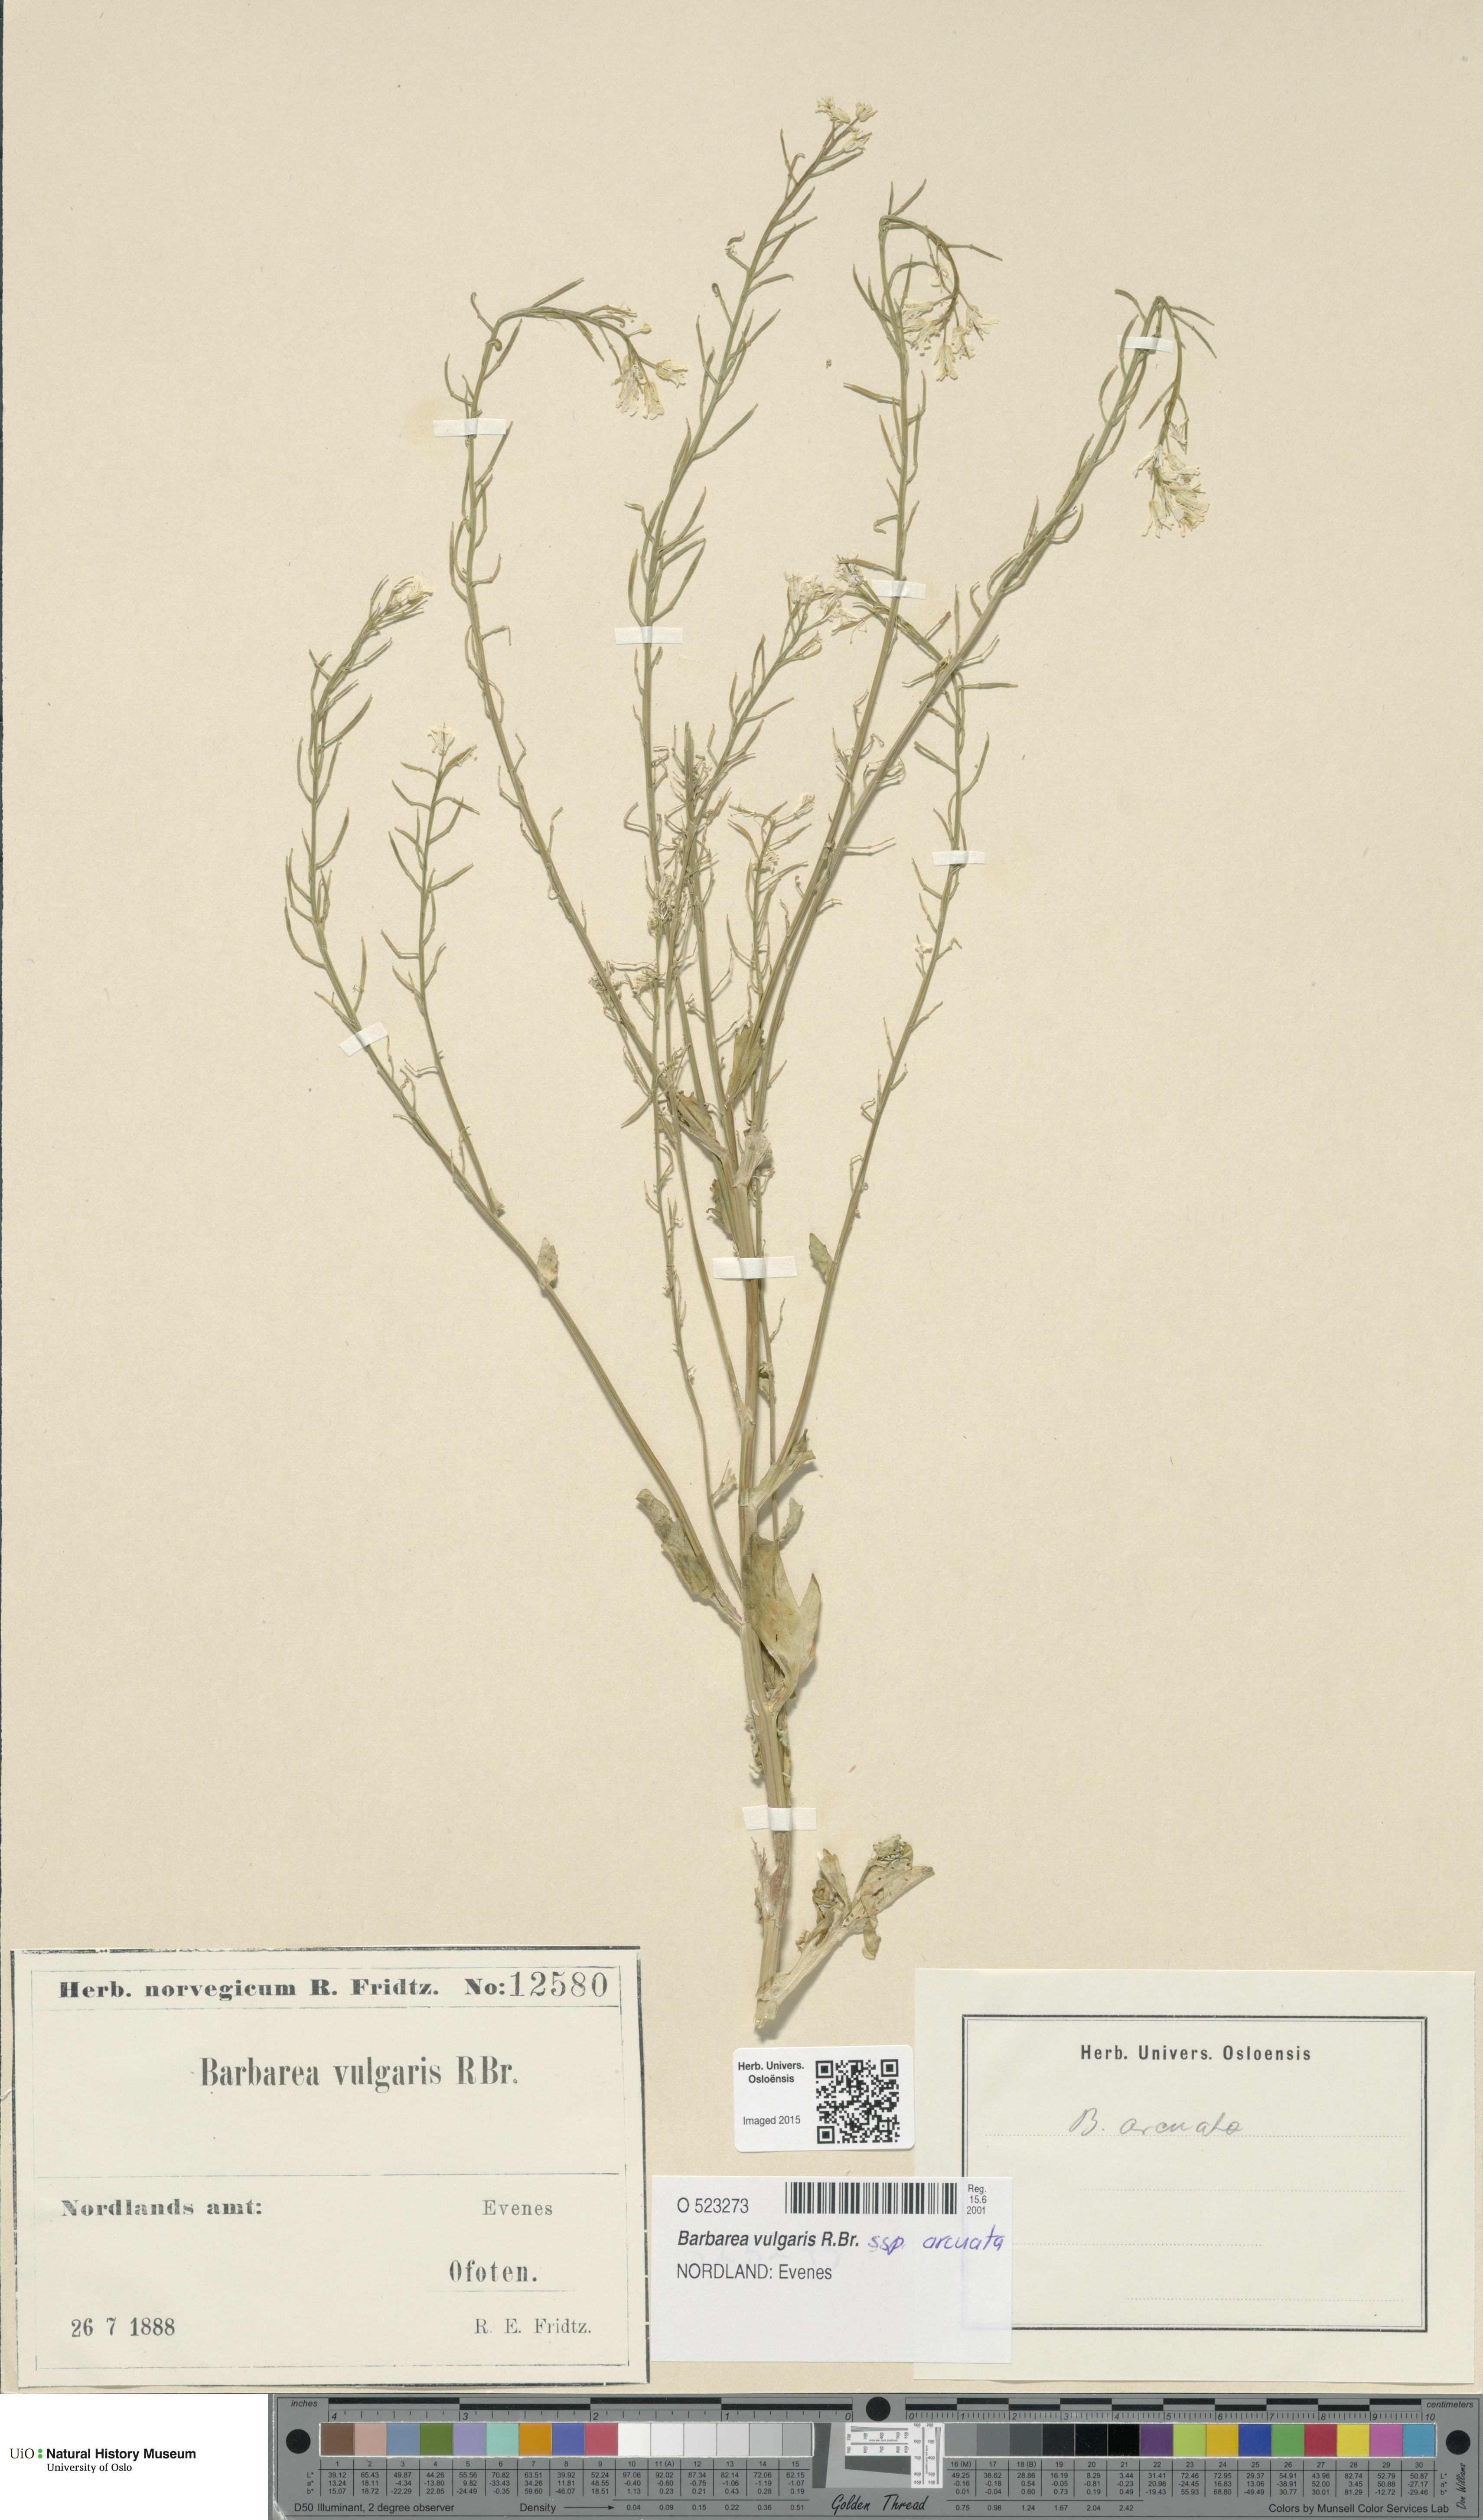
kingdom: Plantae
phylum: Tracheophyta
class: Magnoliopsida
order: Brassicales
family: Brassicaceae
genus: Barbarea
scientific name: Barbarea vulgaris
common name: Cressy-greens
